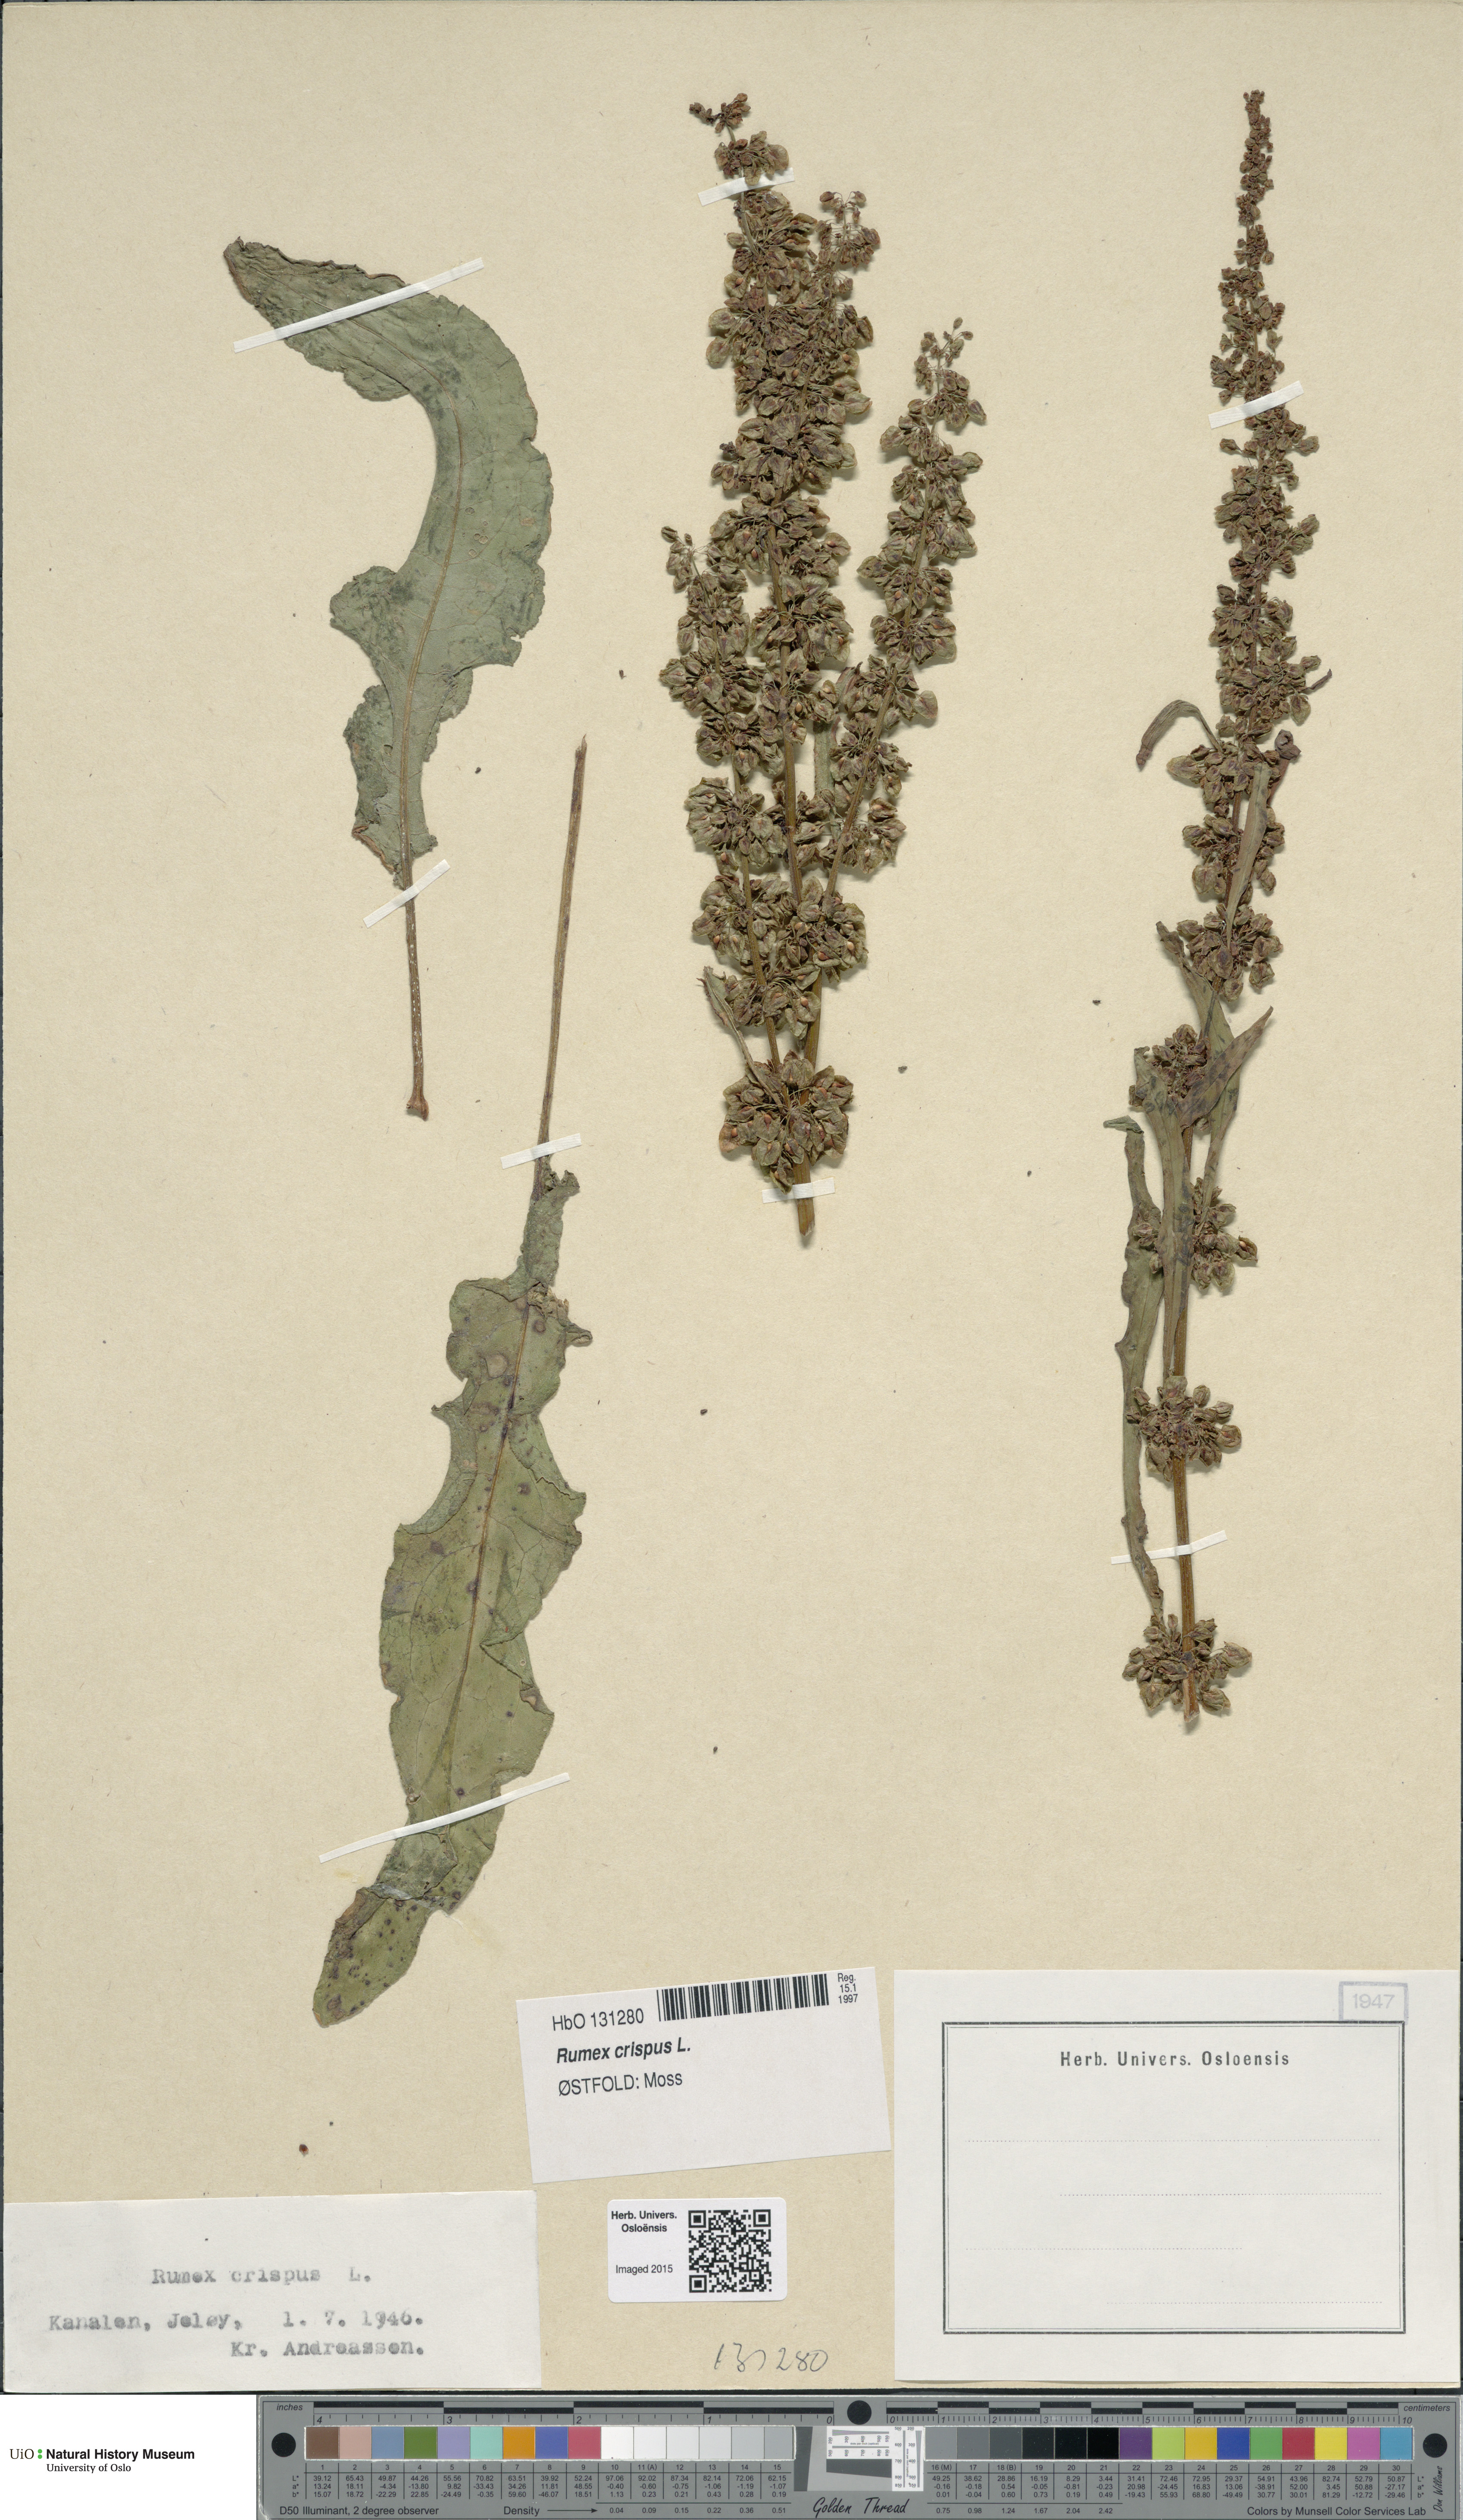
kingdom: Plantae
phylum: Tracheophyta
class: Magnoliopsida
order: Caryophyllales
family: Polygonaceae
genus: Rumex
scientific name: Rumex crispus
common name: Curled dock
